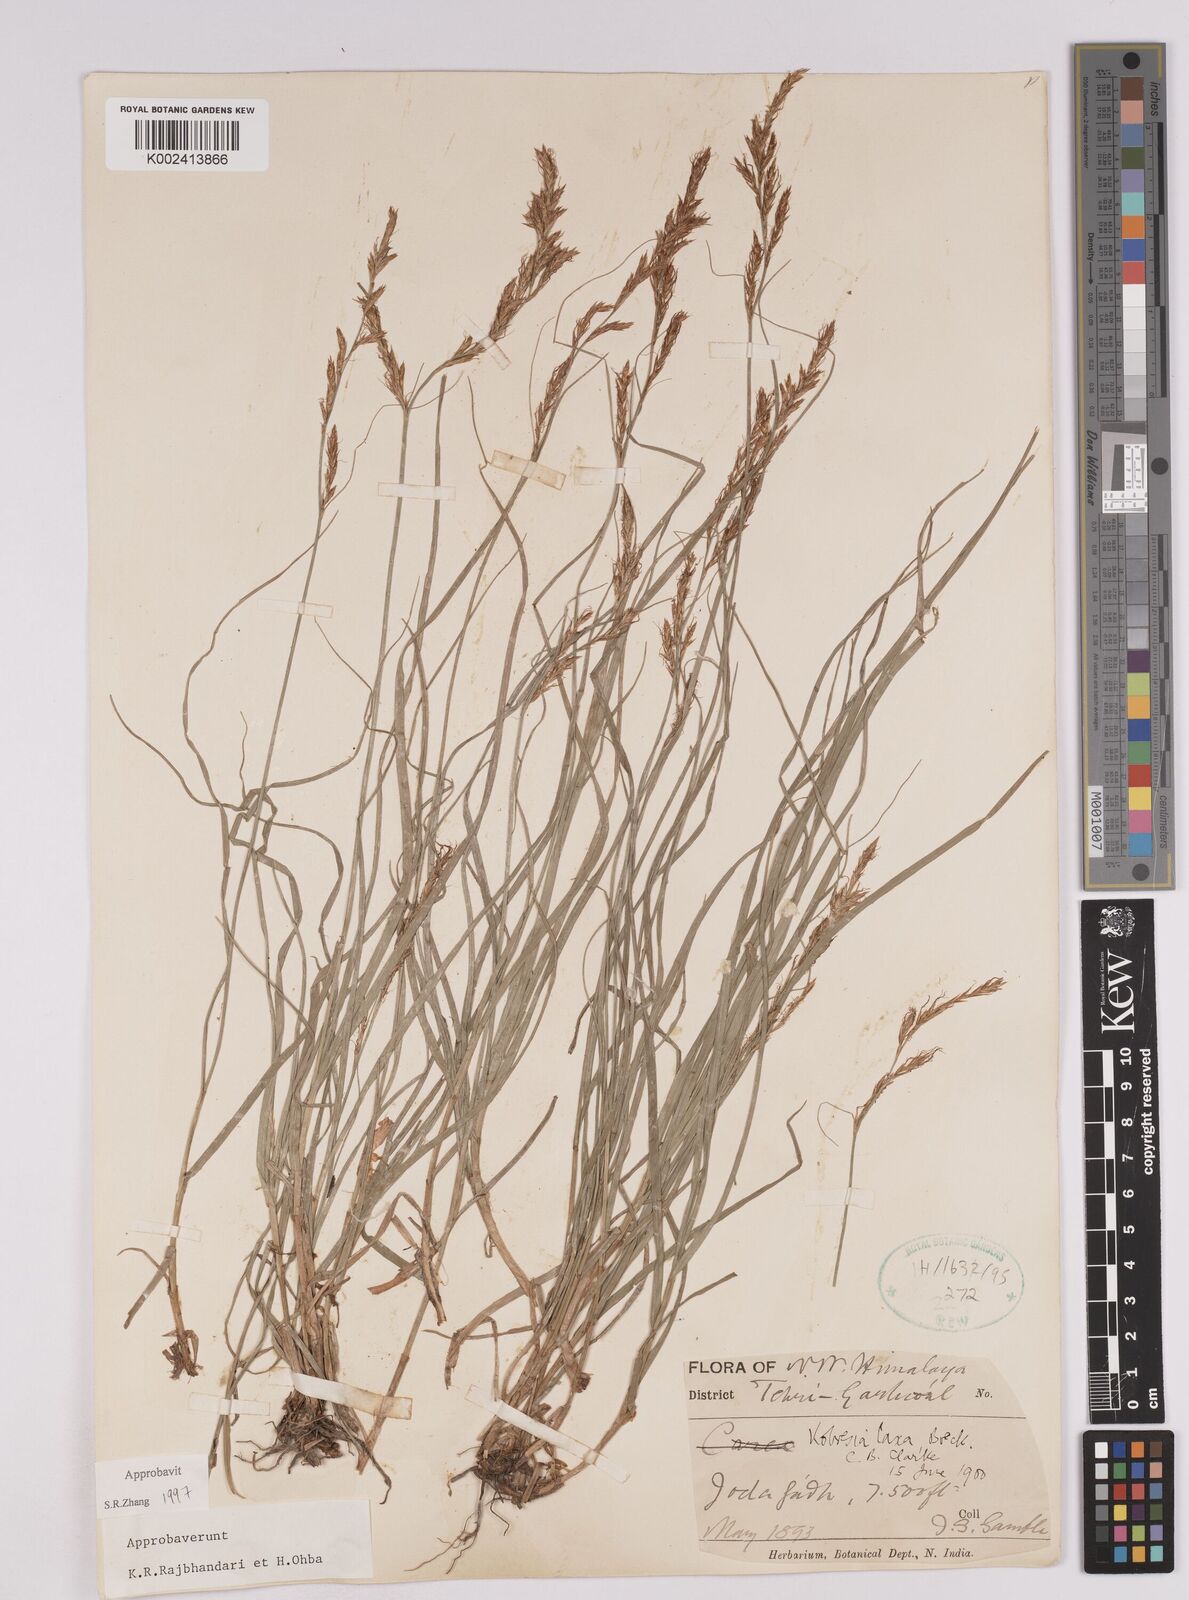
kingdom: Plantae
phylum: Tracheophyta
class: Liliopsida
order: Poales
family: Cyperaceae
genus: Carex
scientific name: Carex pseudolaxa
